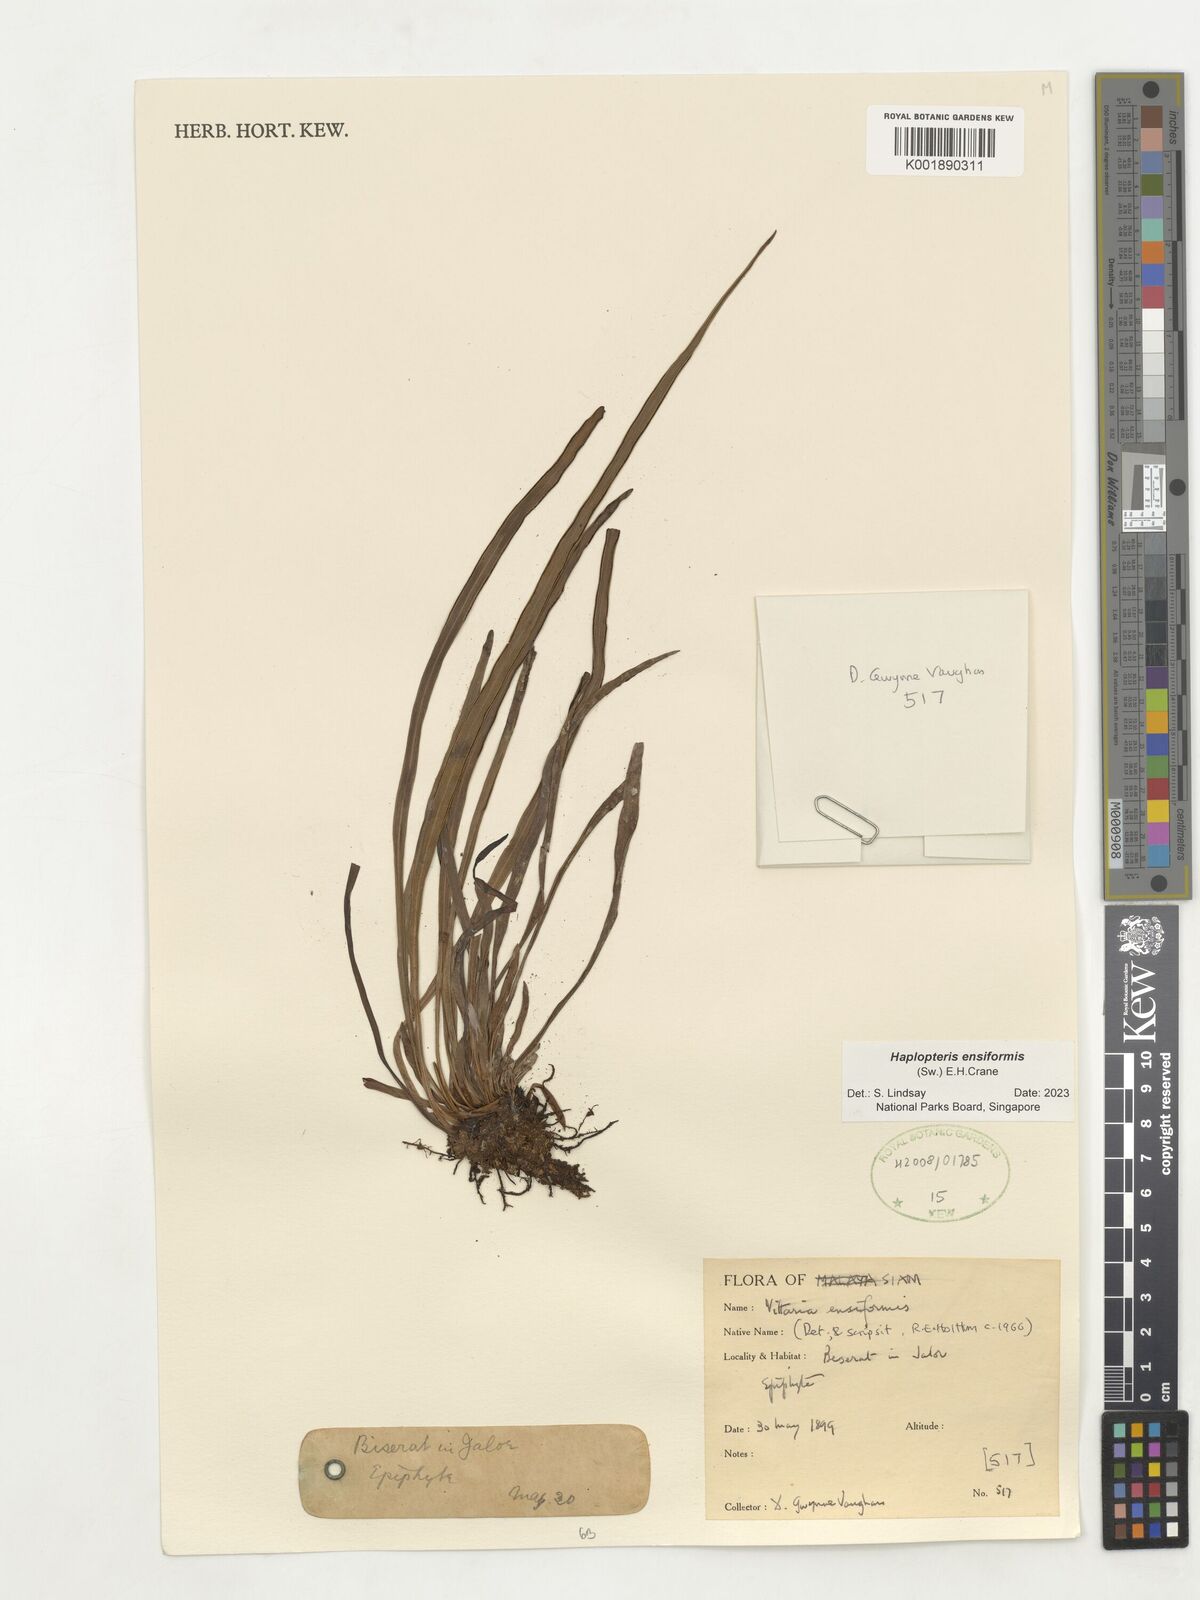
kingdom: Plantae
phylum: Tracheophyta
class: Polypodiopsida
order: Polypodiales
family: Pteridaceae
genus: Haplopteris
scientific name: Haplopteris ensiformis
